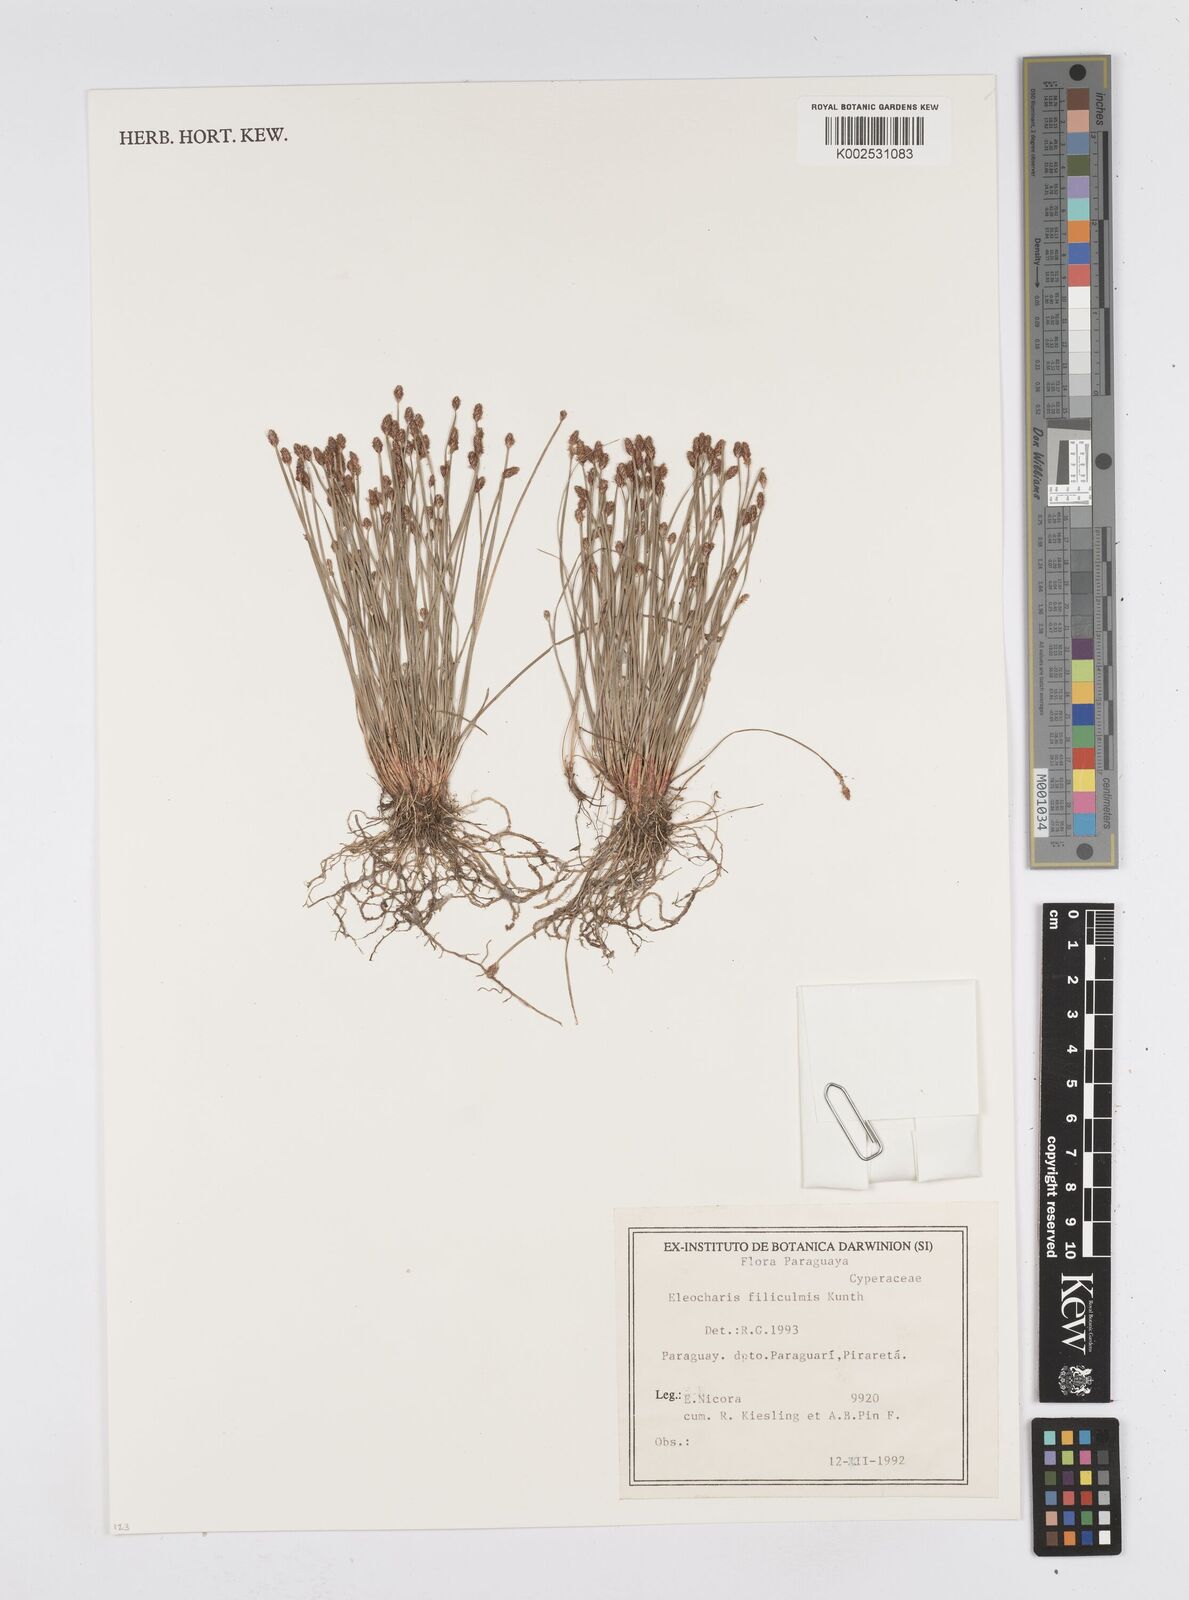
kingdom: Plantae
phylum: Tracheophyta
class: Liliopsida
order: Poales
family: Cyperaceae
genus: Eleocharis
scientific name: Eleocharis filiculmis
